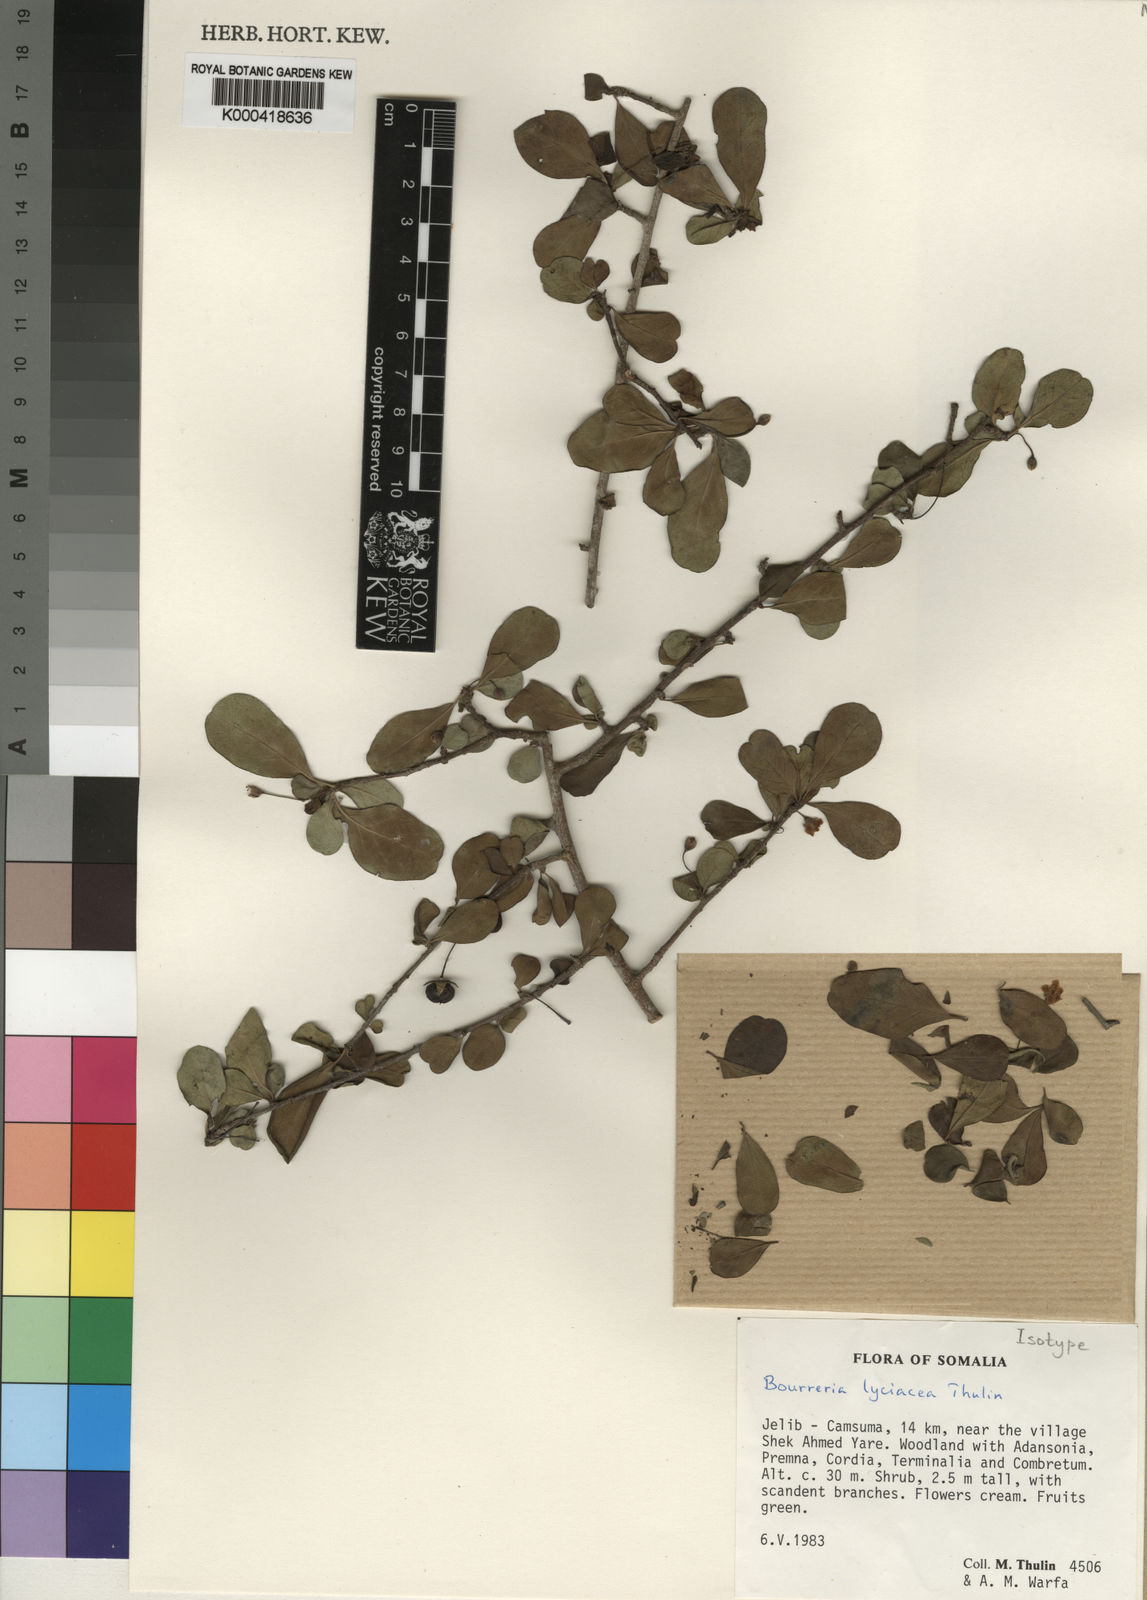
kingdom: Plantae
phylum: Tracheophyta
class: Magnoliopsida
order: Boraginales
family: Ehretiaceae
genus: Bourreria
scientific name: Bourreria lyciacea
